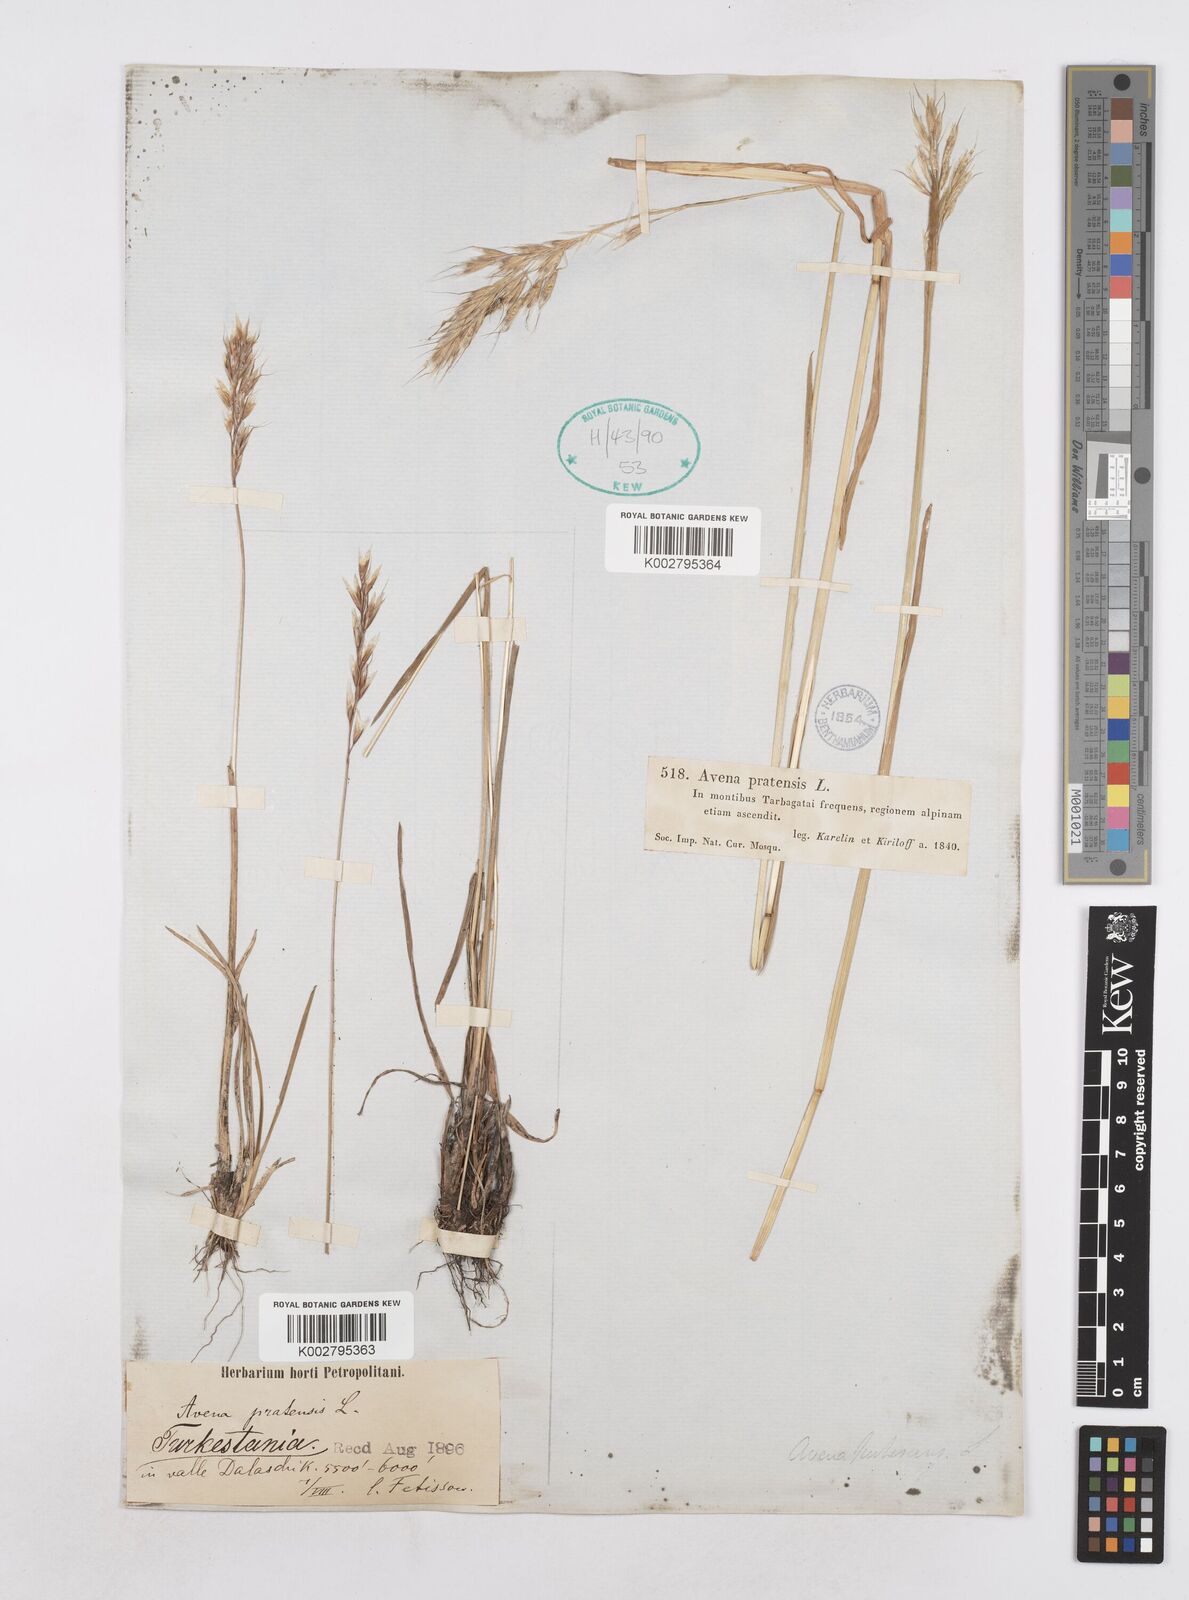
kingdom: Plantae
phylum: Tracheophyta
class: Liliopsida
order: Poales
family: Poaceae
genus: Helictotrichon
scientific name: Helictotrichon
